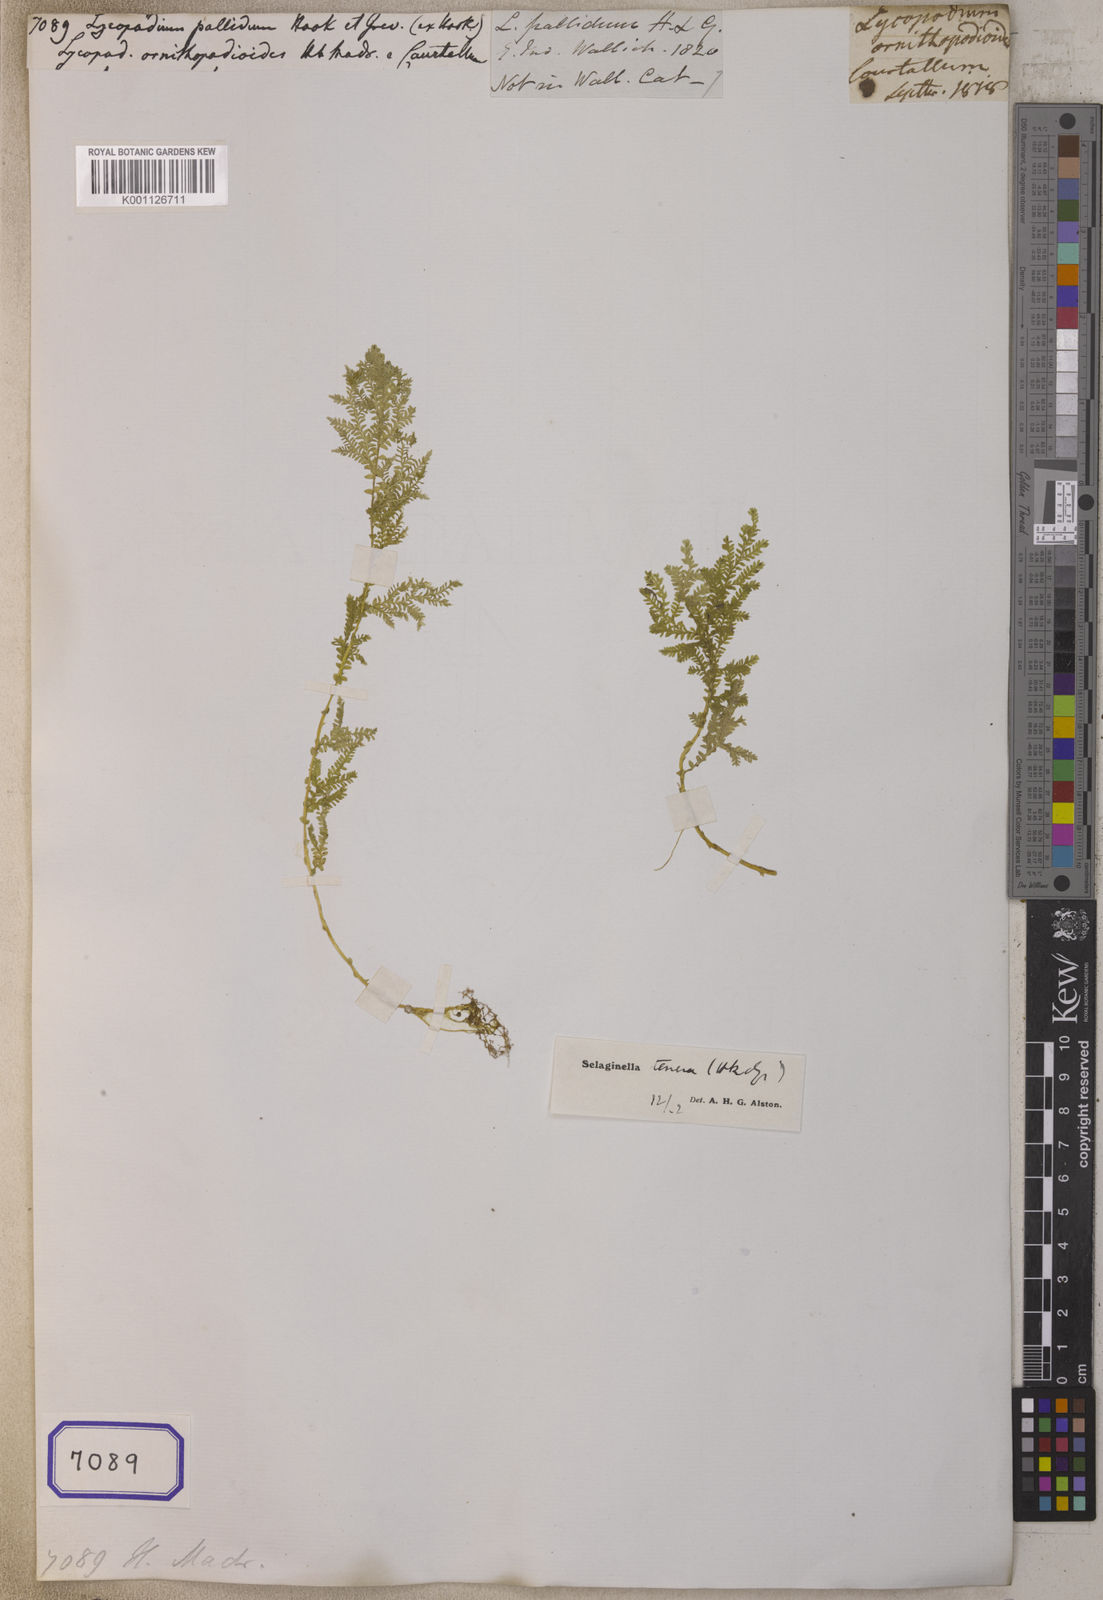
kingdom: Plantae
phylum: Tracheophyta
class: Lycopodiopsida
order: Selaginellales
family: Selaginellaceae
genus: Selaginella
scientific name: Selaginella pallida
